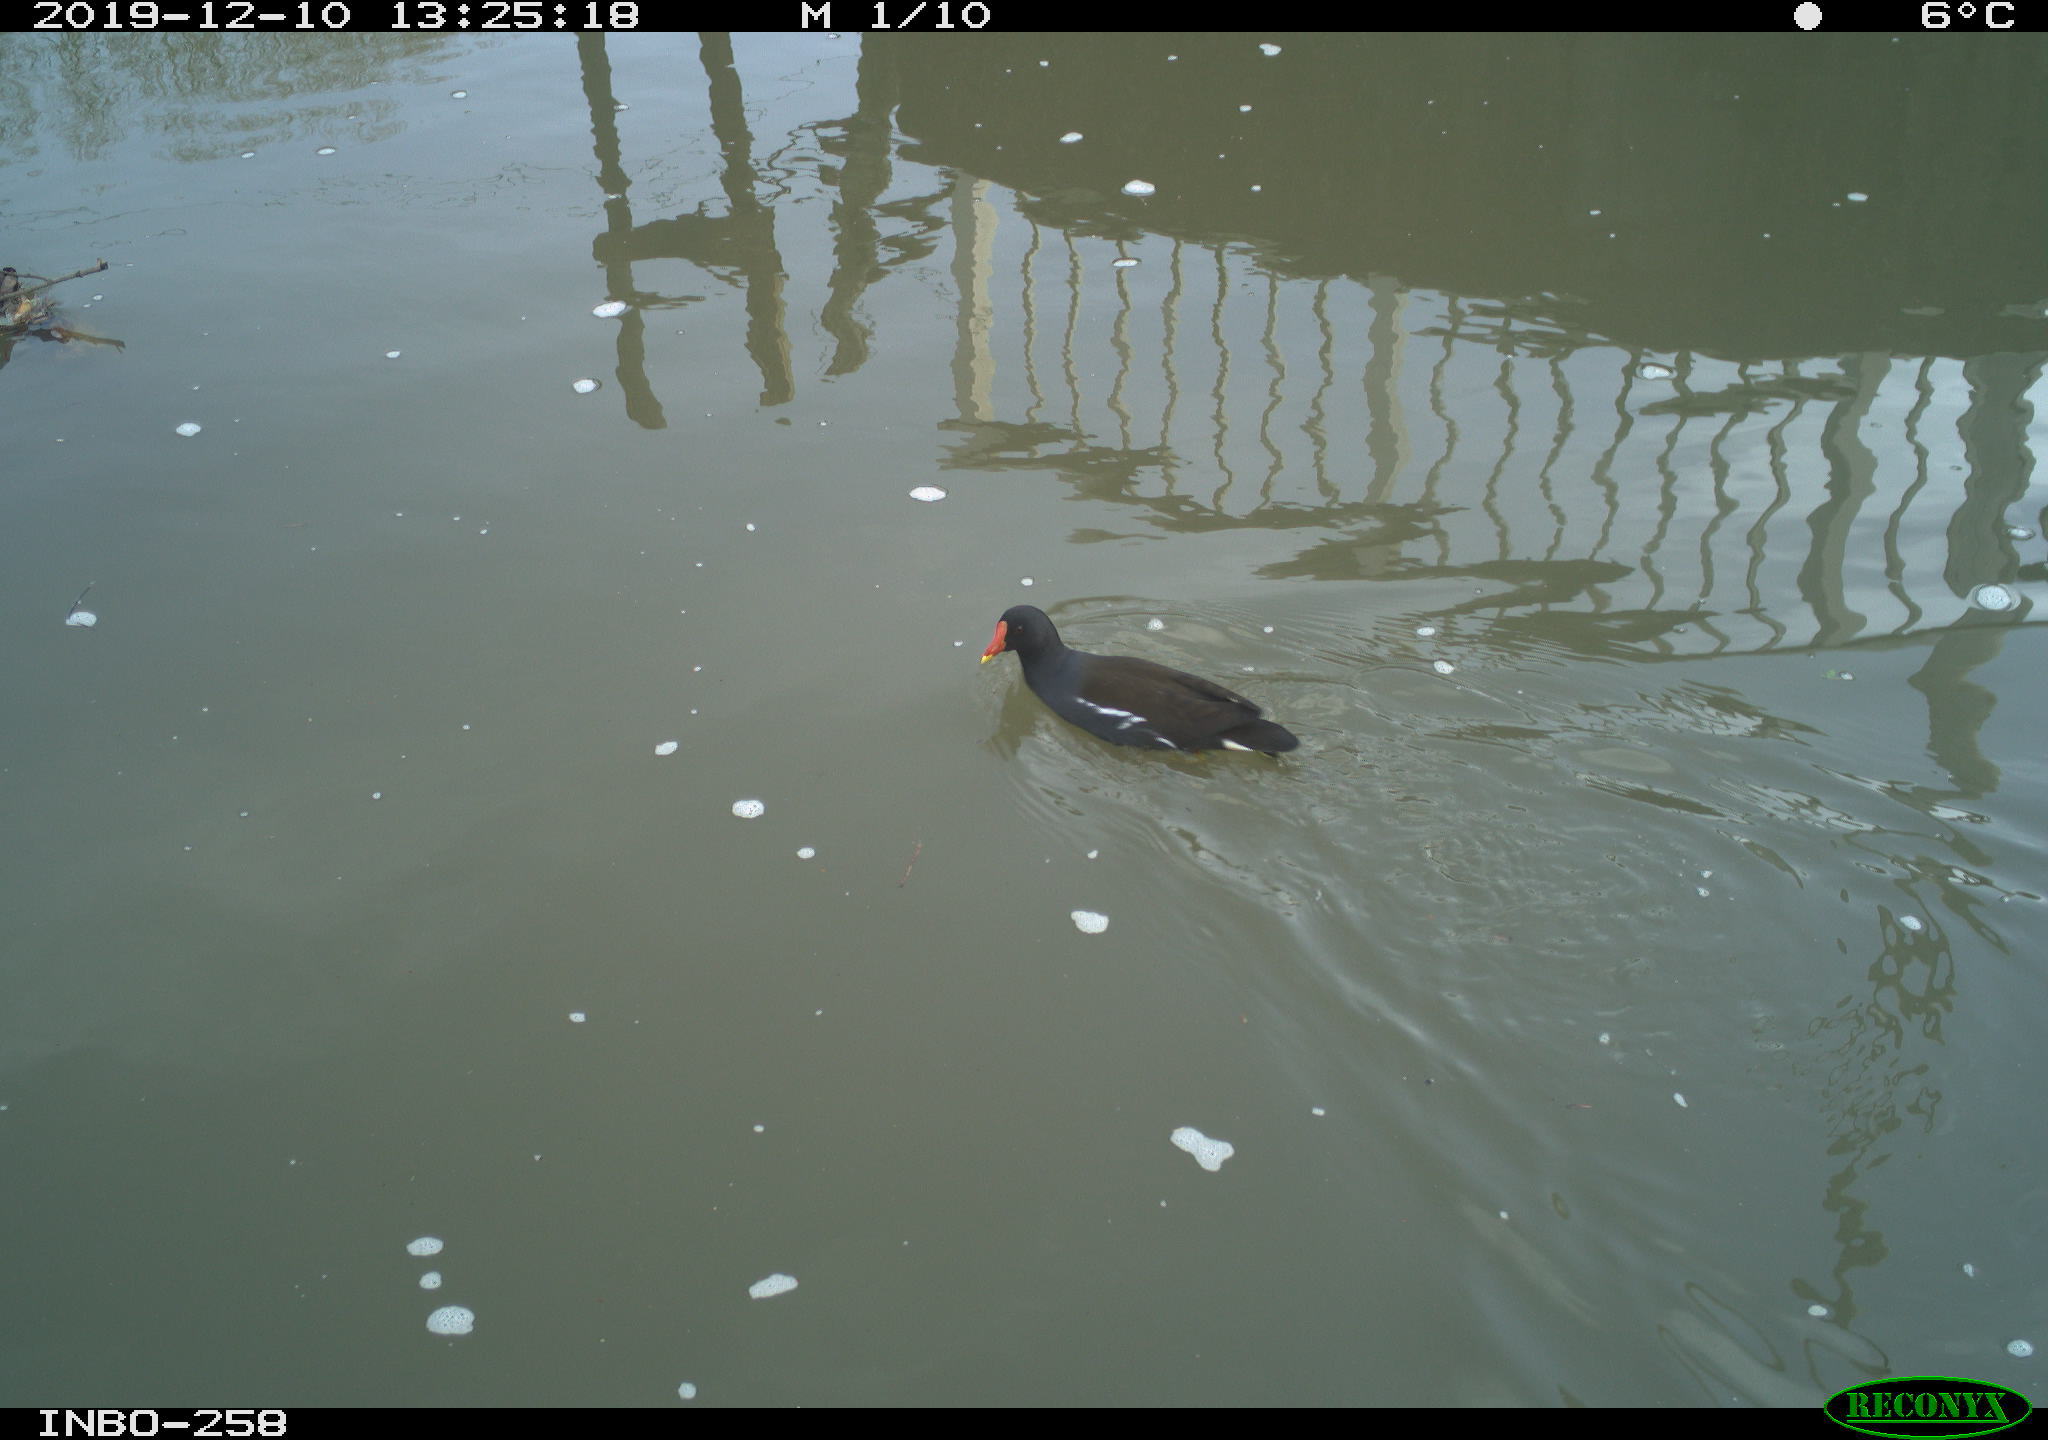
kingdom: Animalia
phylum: Chordata
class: Aves
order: Gruiformes
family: Rallidae
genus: Gallinula
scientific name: Gallinula chloropus
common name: Common moorhen
